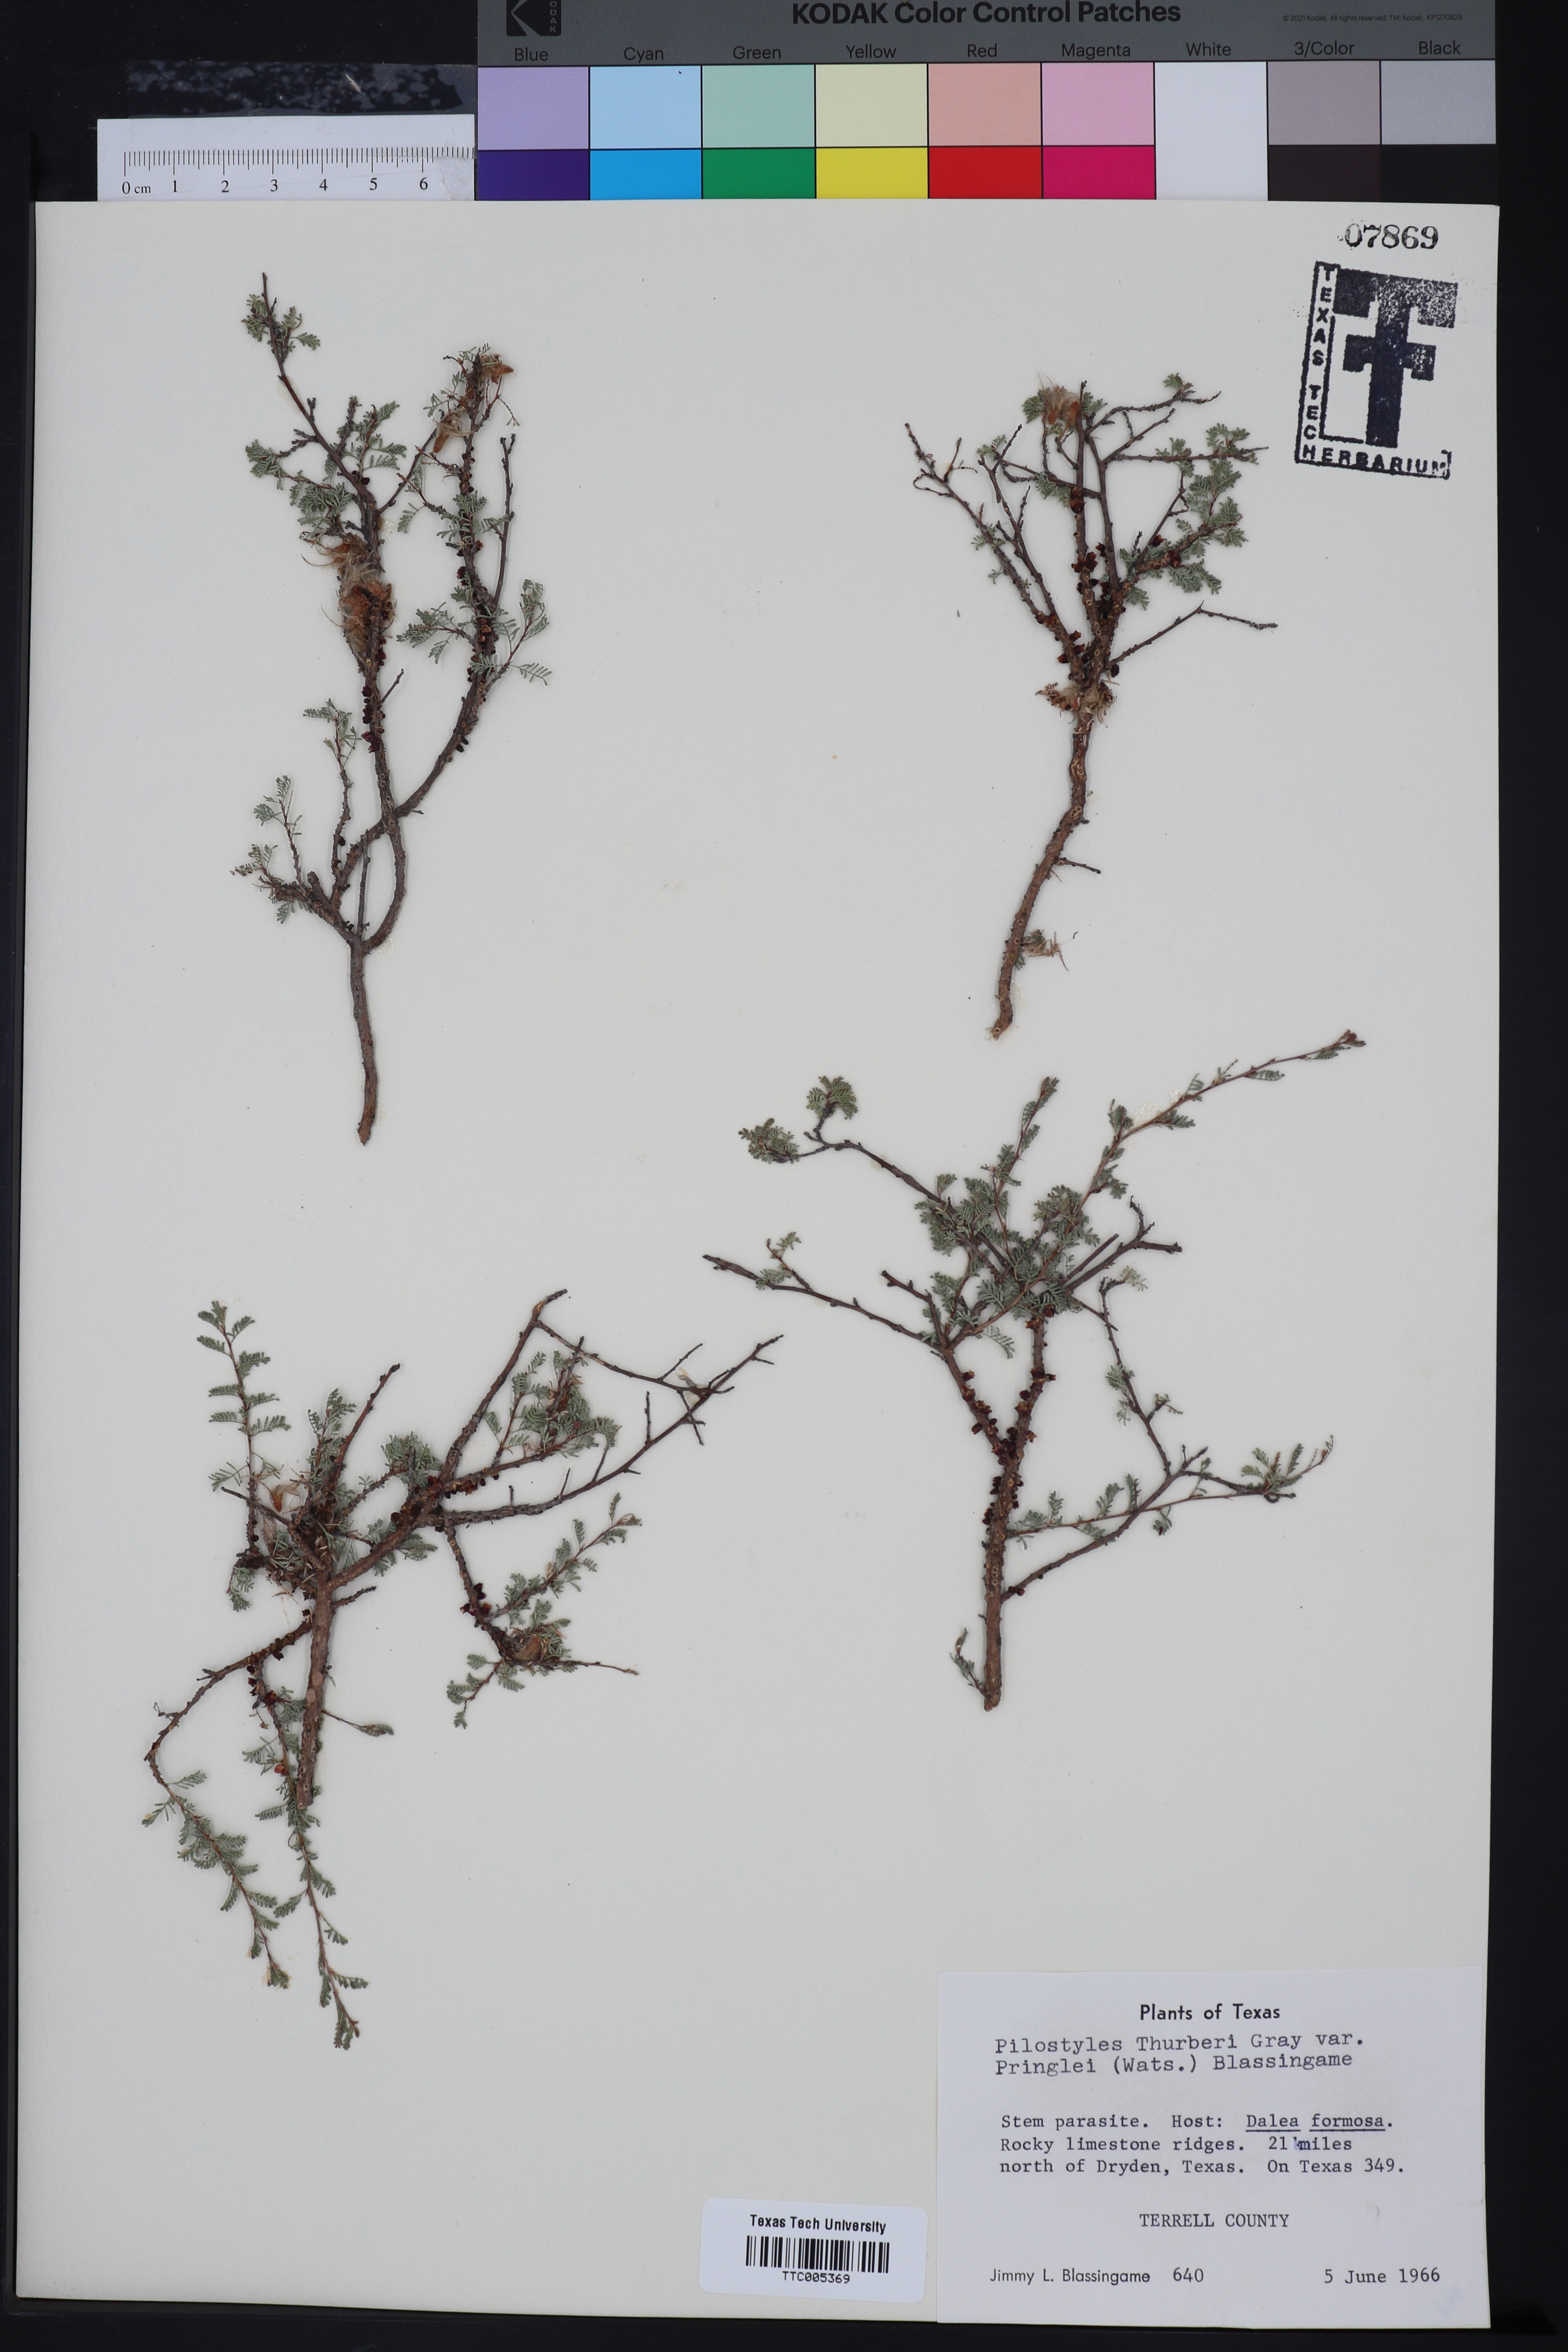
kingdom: Plantae
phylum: Tracheophyta
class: Magnoliopsida
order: Cucurbitales
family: Apodanthaceae
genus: Pilostyles
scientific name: Pilostyles thurberi
